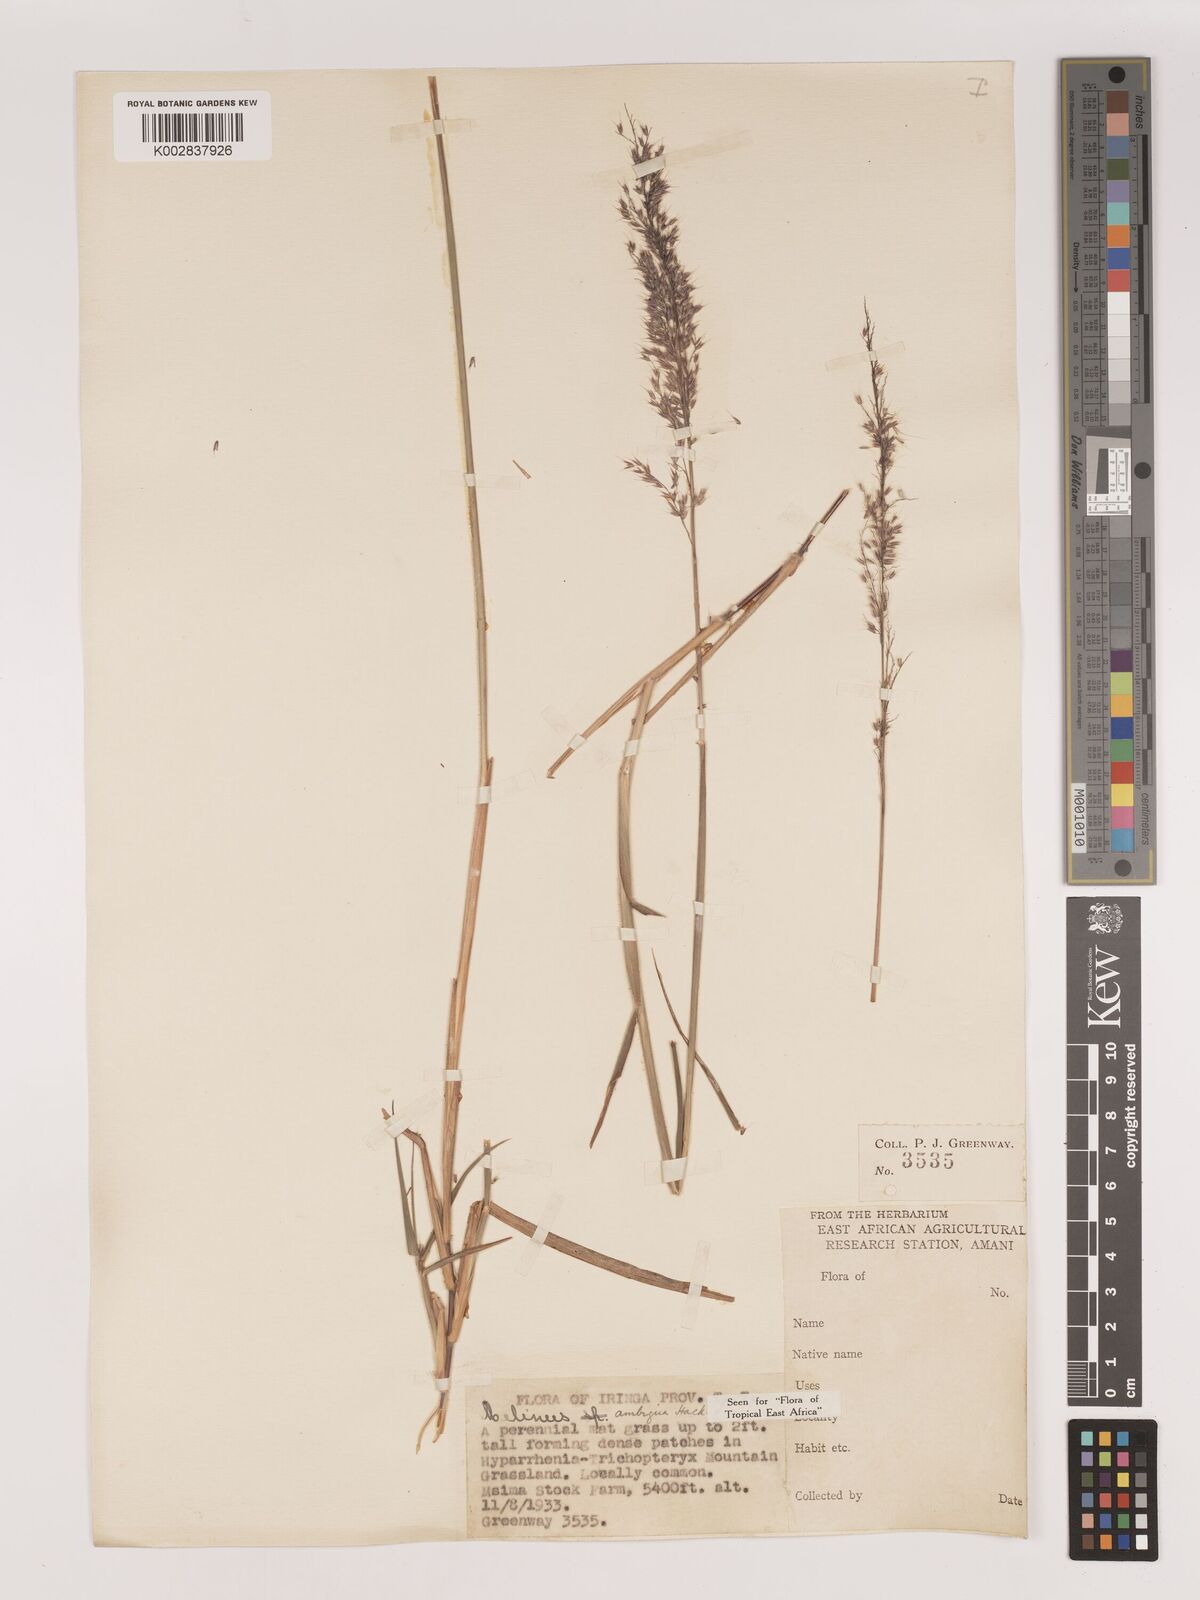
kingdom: Plantae
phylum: Tracheophyta
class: Liliopsida
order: Poales
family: Poaceae
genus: Melinis
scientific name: Melinis ambigua
